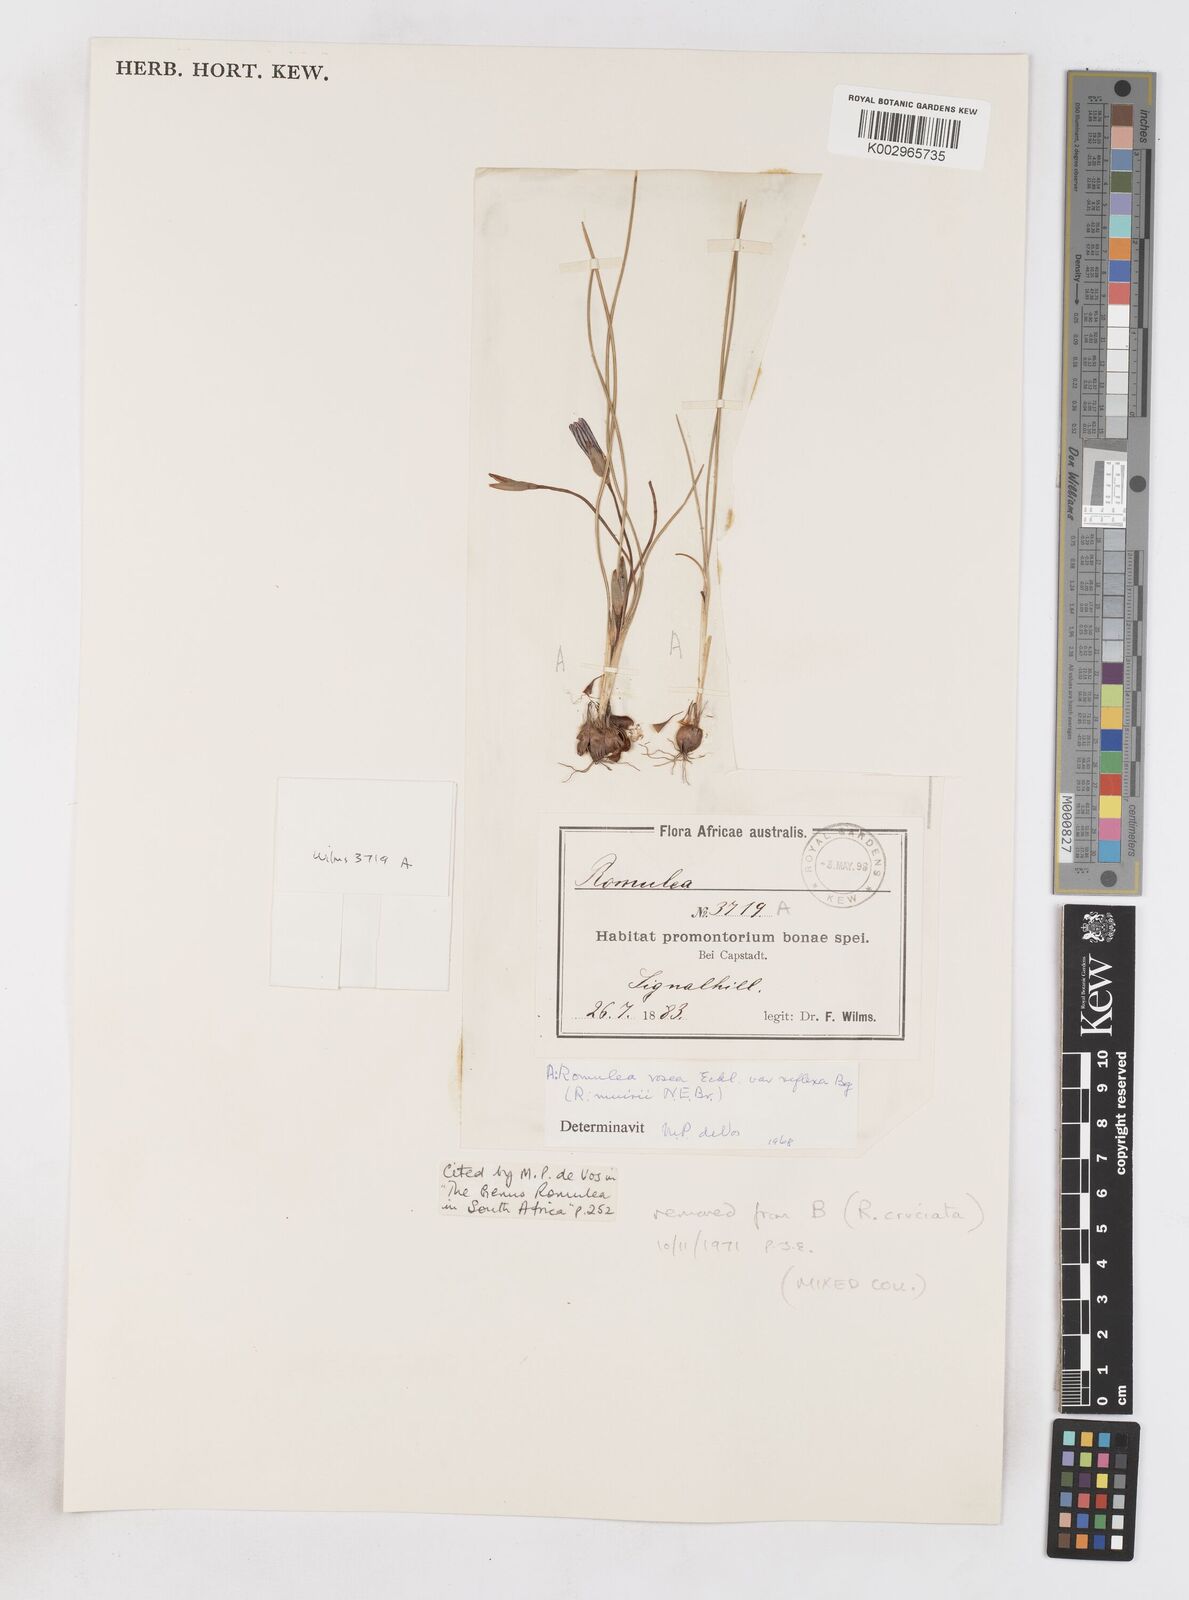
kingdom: Plantae
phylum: Tracheophyta
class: Liliopsida
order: Asparagales
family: Iridaceae
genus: Romulea
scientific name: Romulea rosea
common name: Oniongrass
